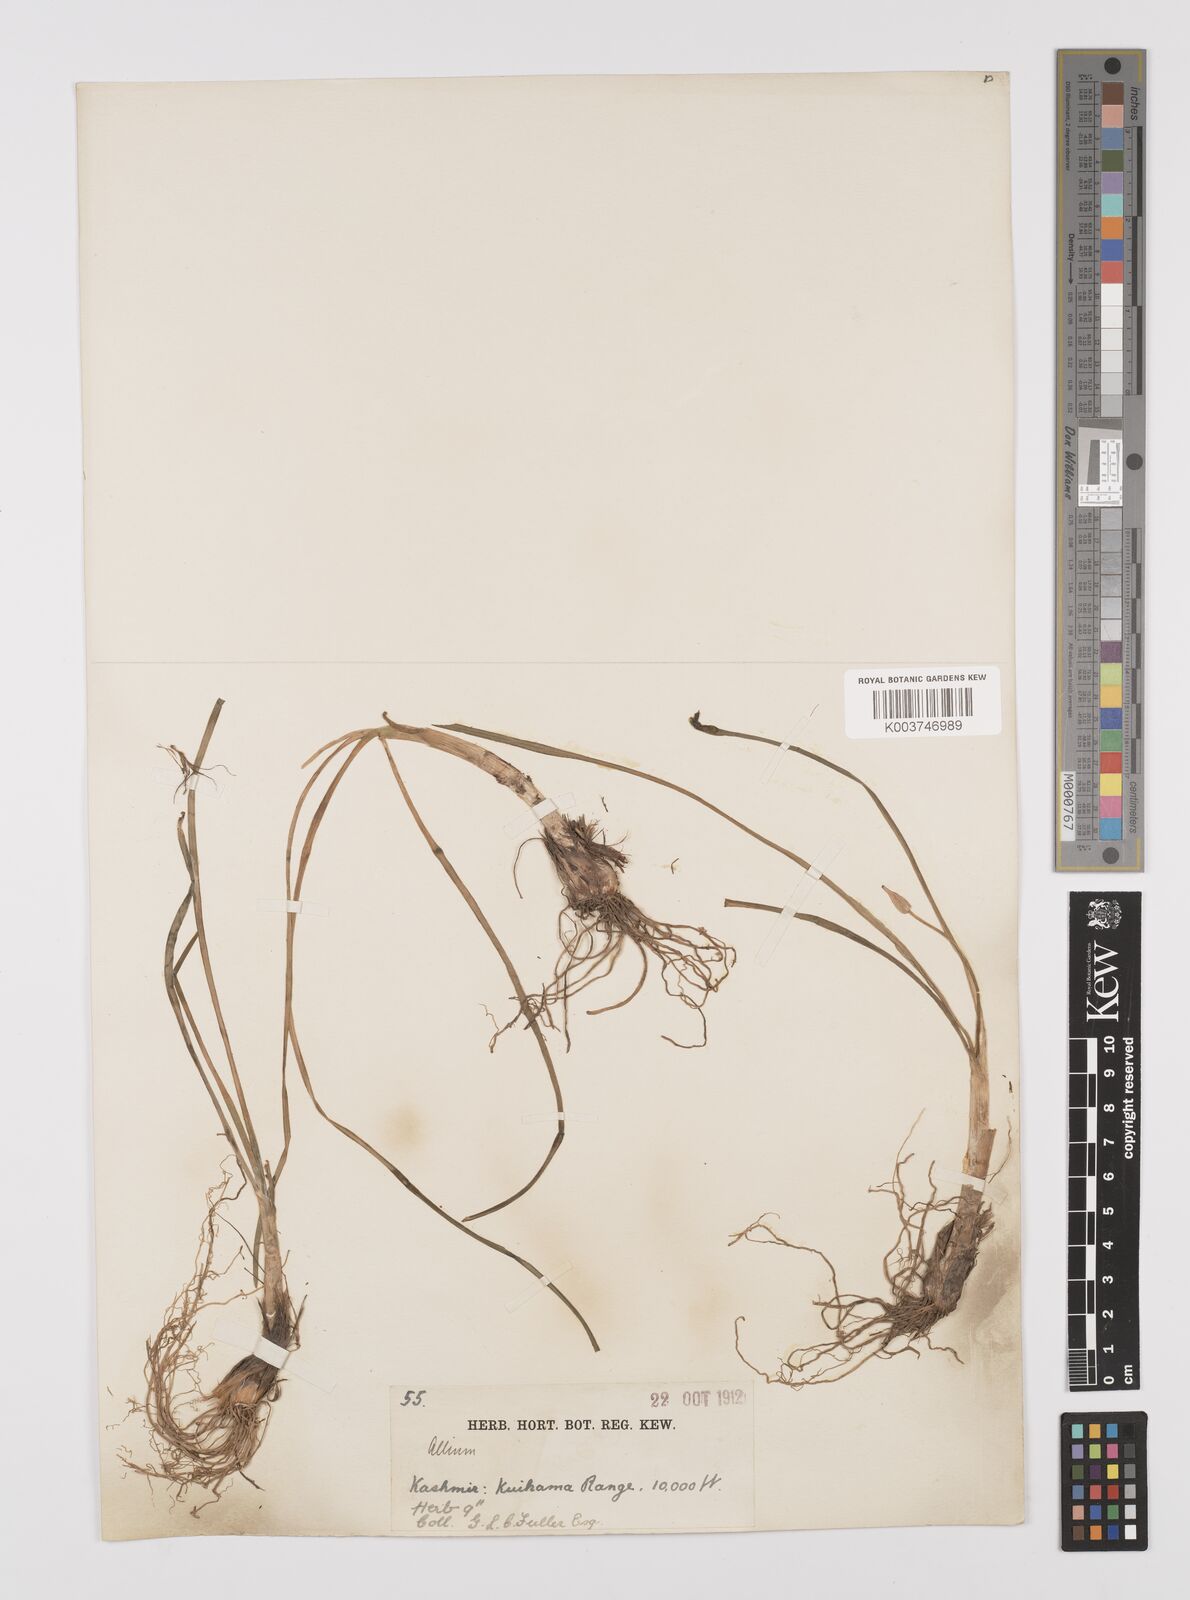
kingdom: Plantae
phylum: Tracheophyta
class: Liliopsida
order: Asparagales
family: Amaryllidaceae
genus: Allium
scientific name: Allium
